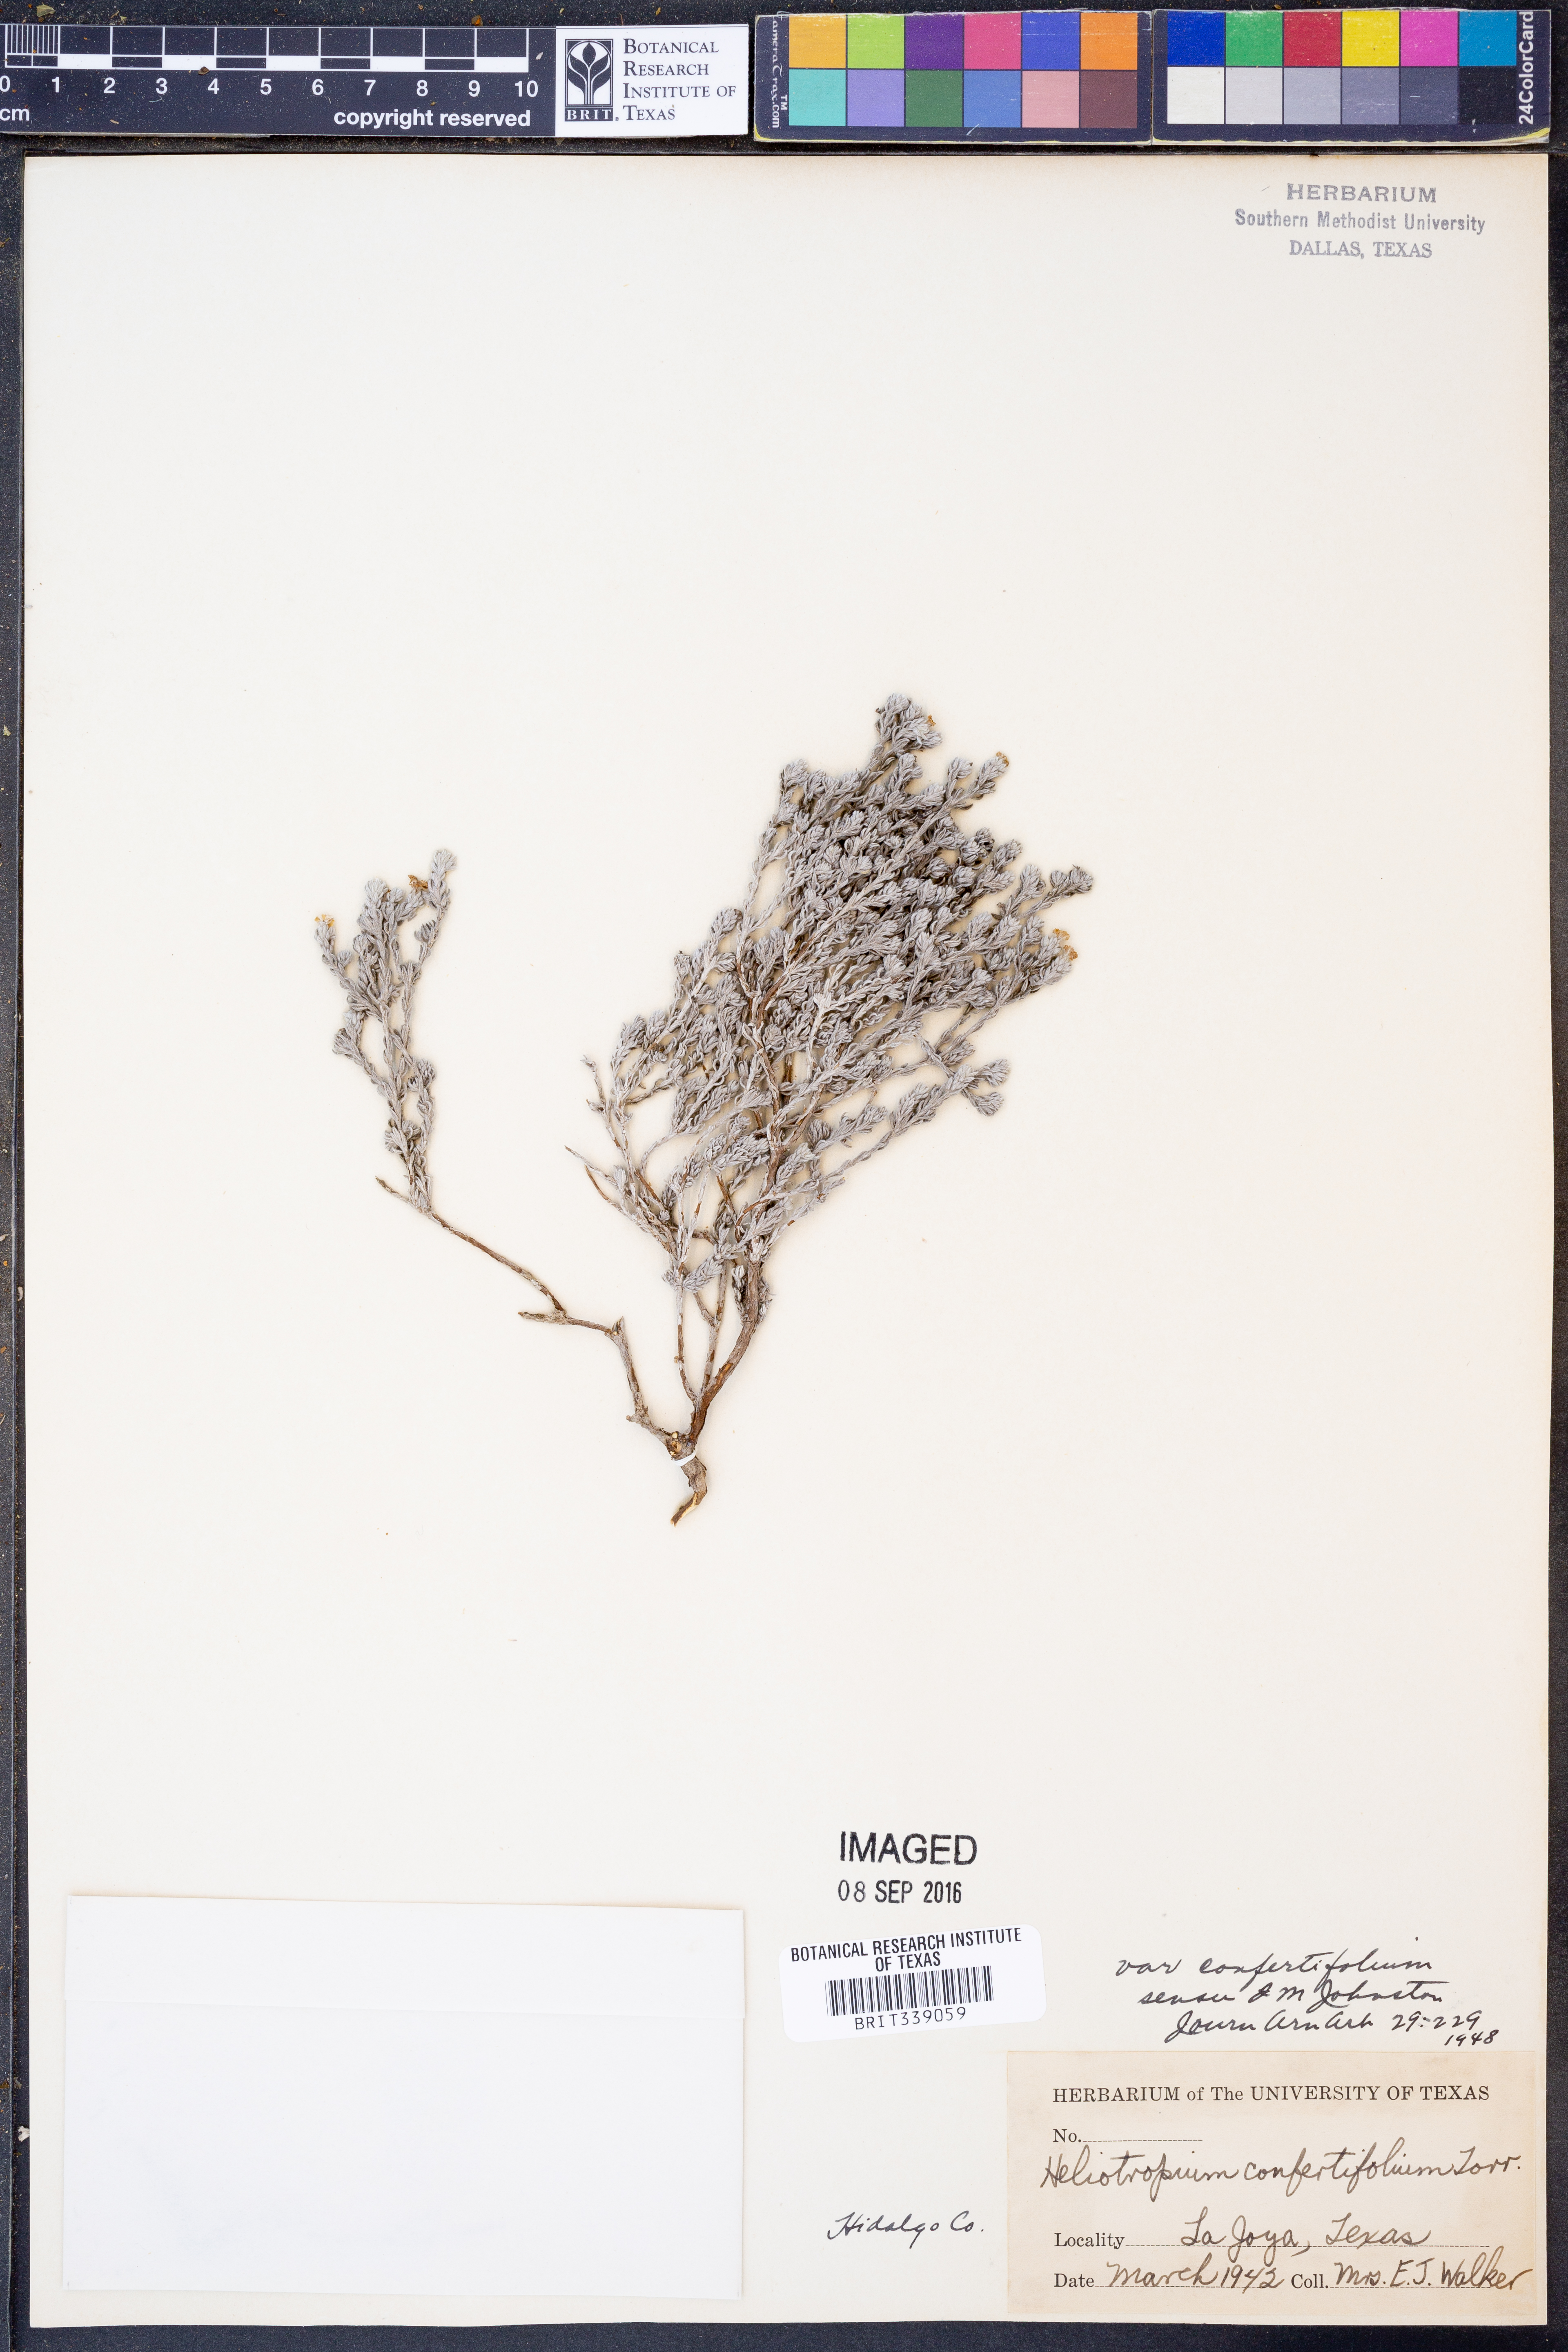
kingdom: Plantae
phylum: Tracheophyta
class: Magnoliopsida
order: Boraginales
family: Heliotropiaceae
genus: Euploca
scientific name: Euploca confertifolia
